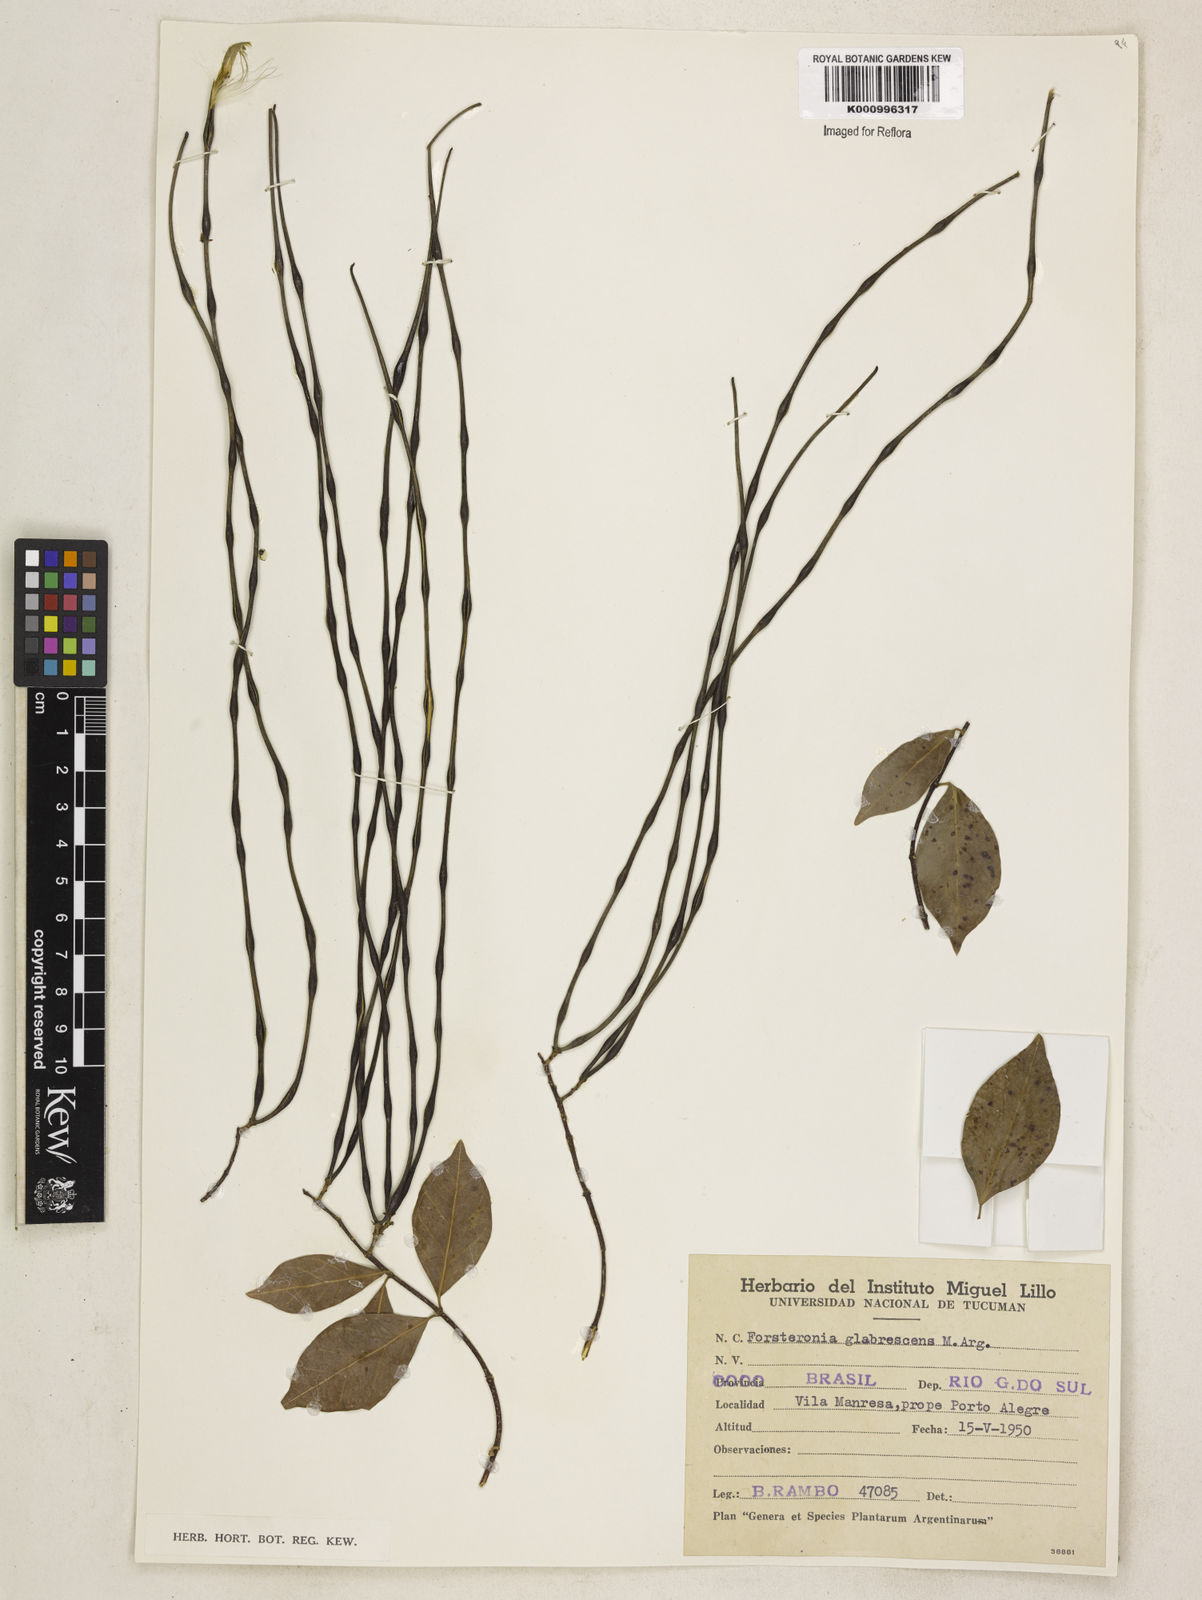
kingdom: Plantae
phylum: Tracheophyta
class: Magnoliopsida
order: Gentianales
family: Apocynaceae
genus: Forsteronia
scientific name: Forsteronia
